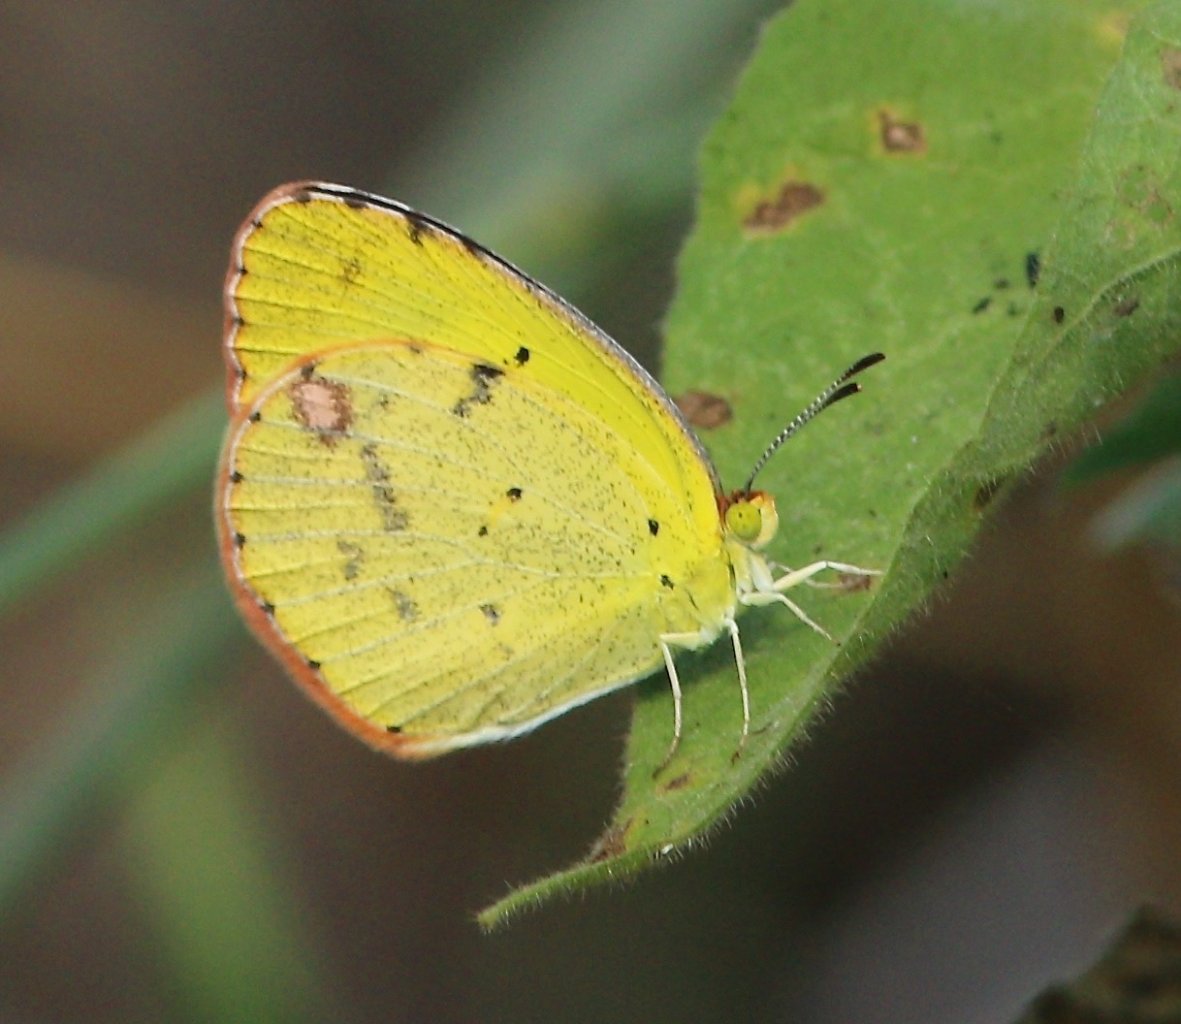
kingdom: Animalia
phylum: Arthropoda
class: Insecta
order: Lepidoptera
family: Pieridae
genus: Pyrisitia
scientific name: Pyrisitia lisa
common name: Little Yellow
